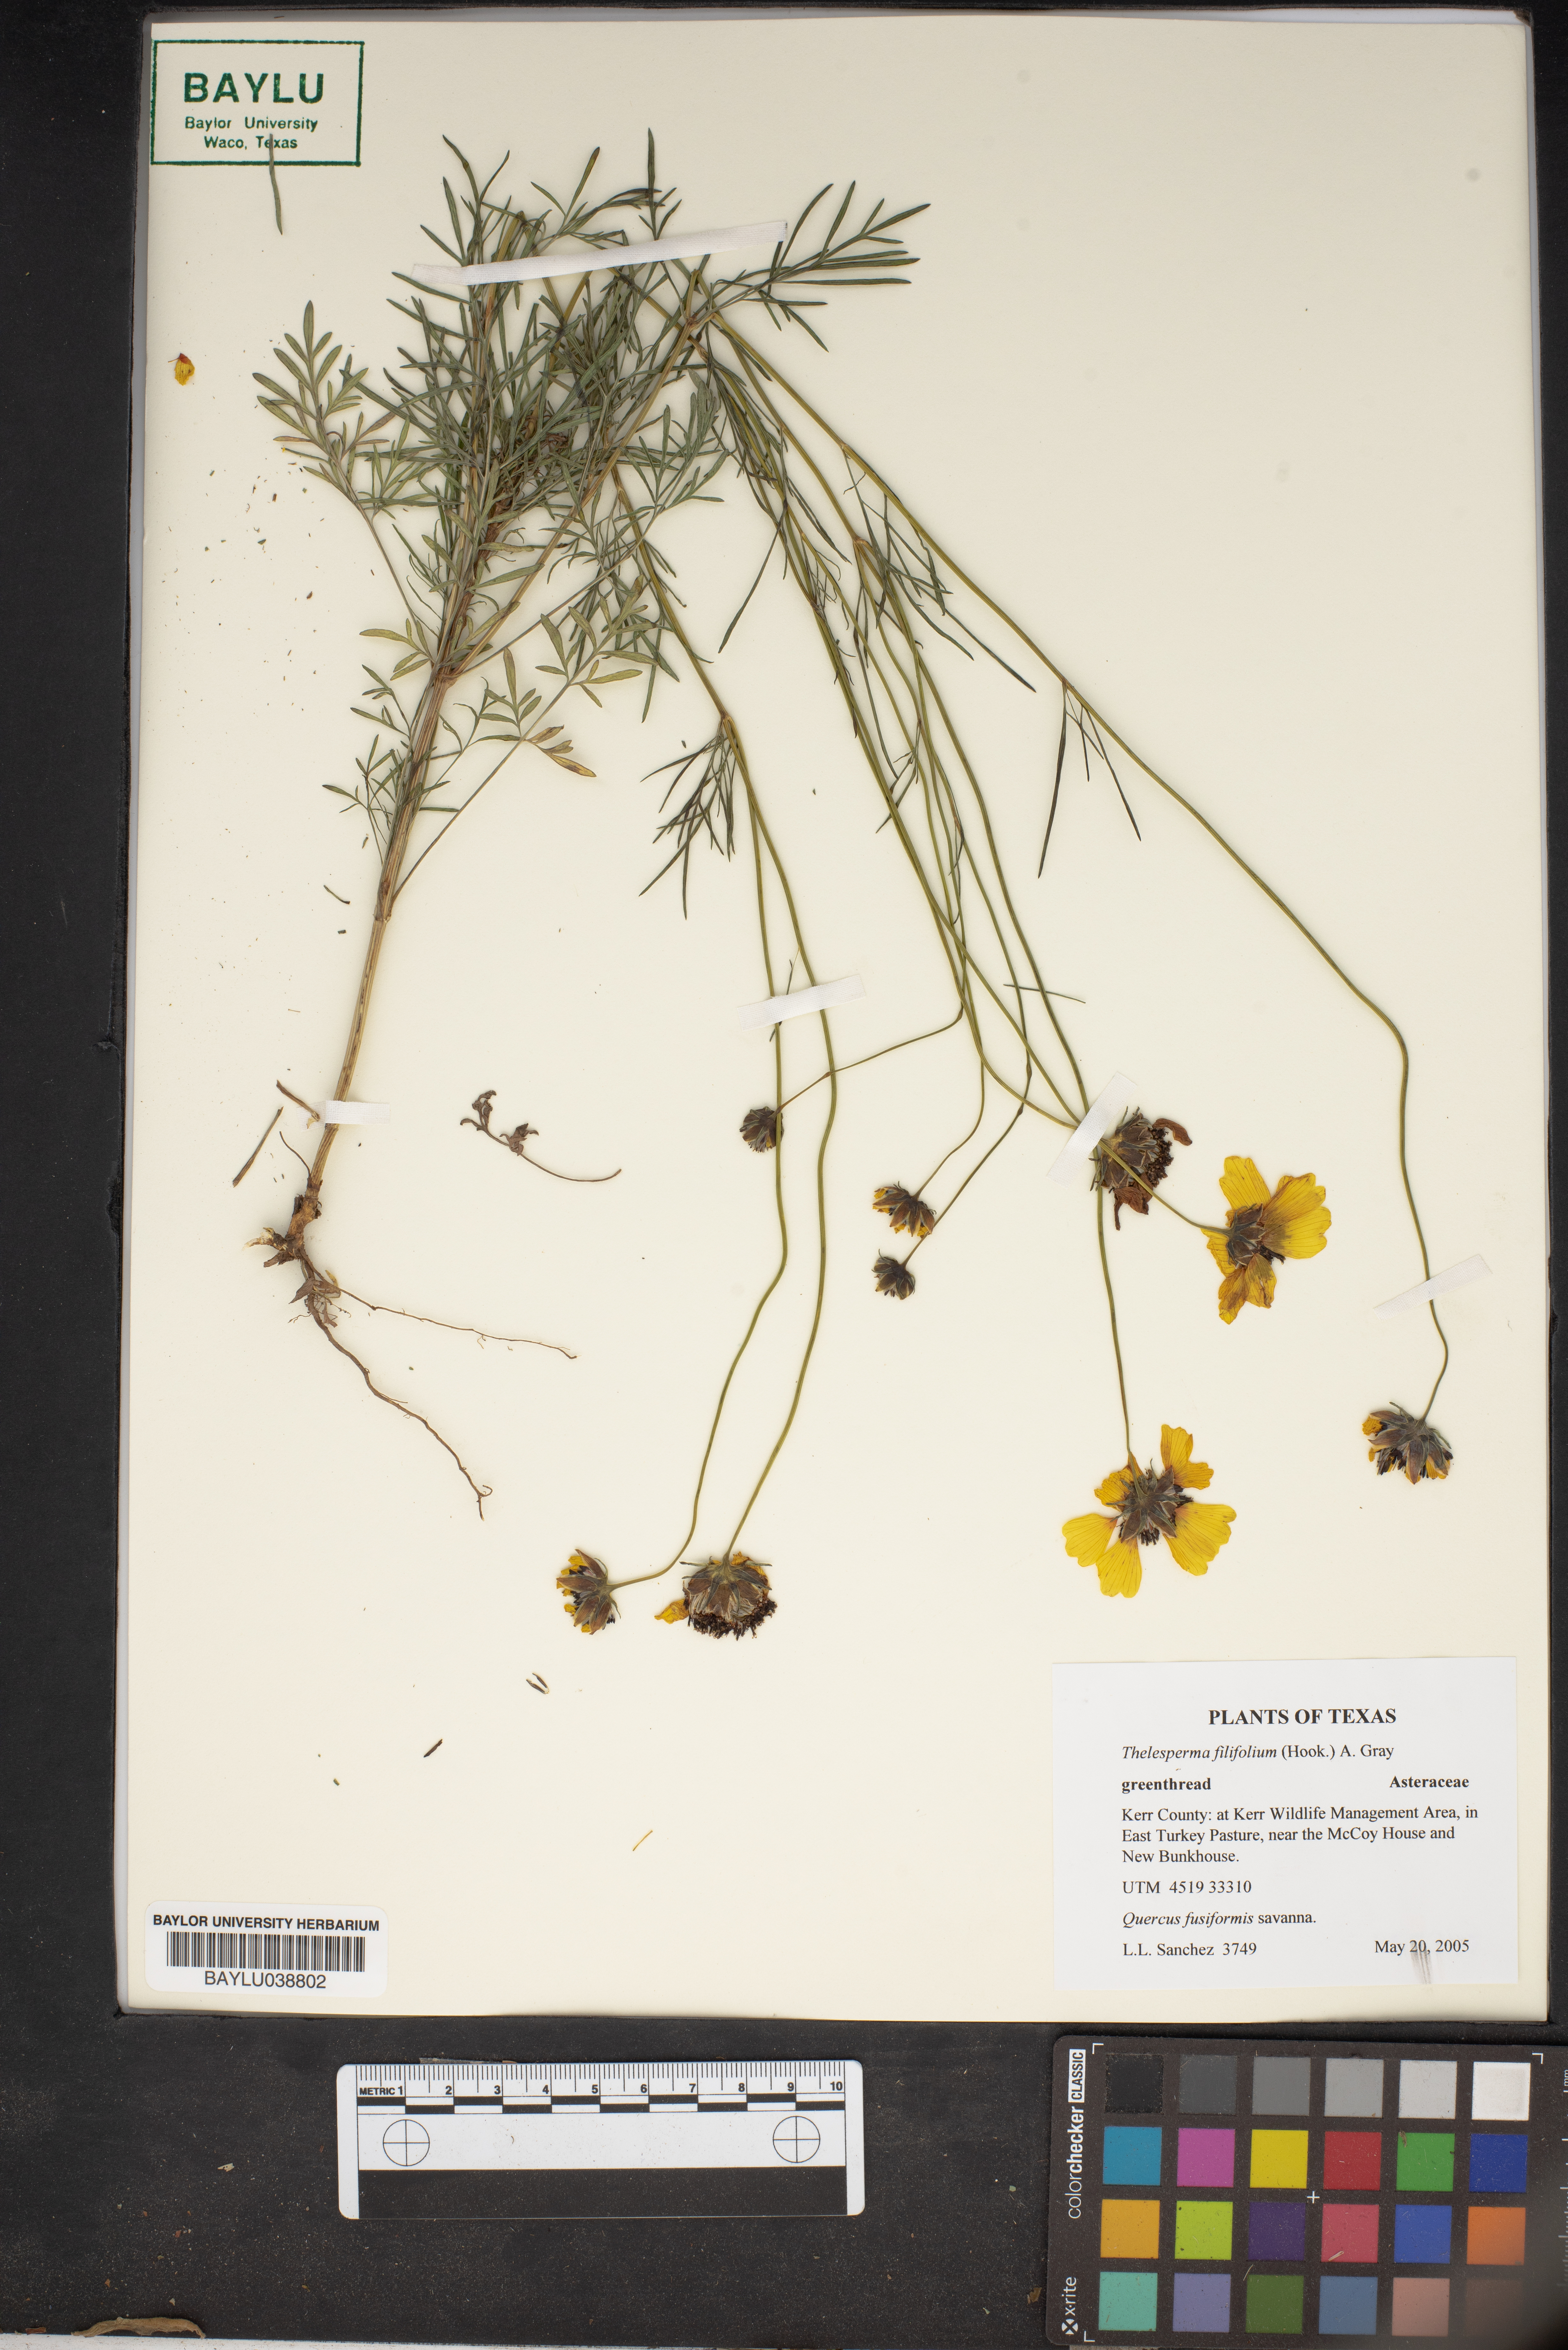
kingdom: Plantae
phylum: Tracheophyta
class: Magnoliopsida
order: Asterales
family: Asteraceae
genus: Thelesperma
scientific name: Thelesperma filifolium
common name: Stiff greenthread
